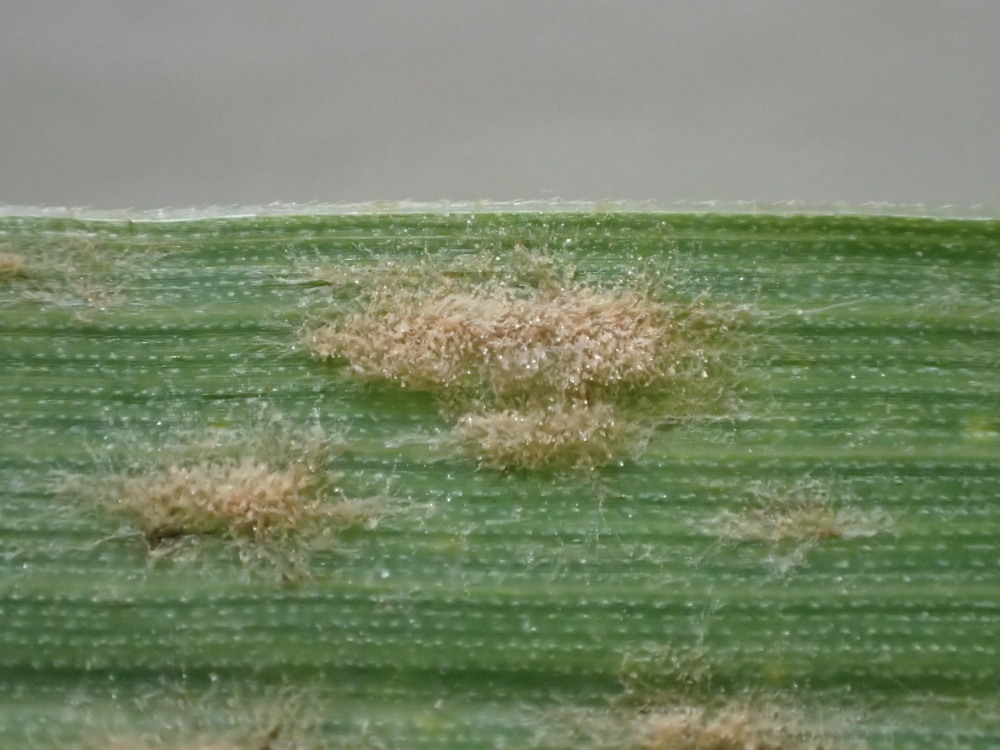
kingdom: Fungi
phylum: Ascomycota
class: Leotiomycetes
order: Helotiales
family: Erysiphaceae
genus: Blumeria
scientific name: Blumeria graminis
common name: græs-meldug
